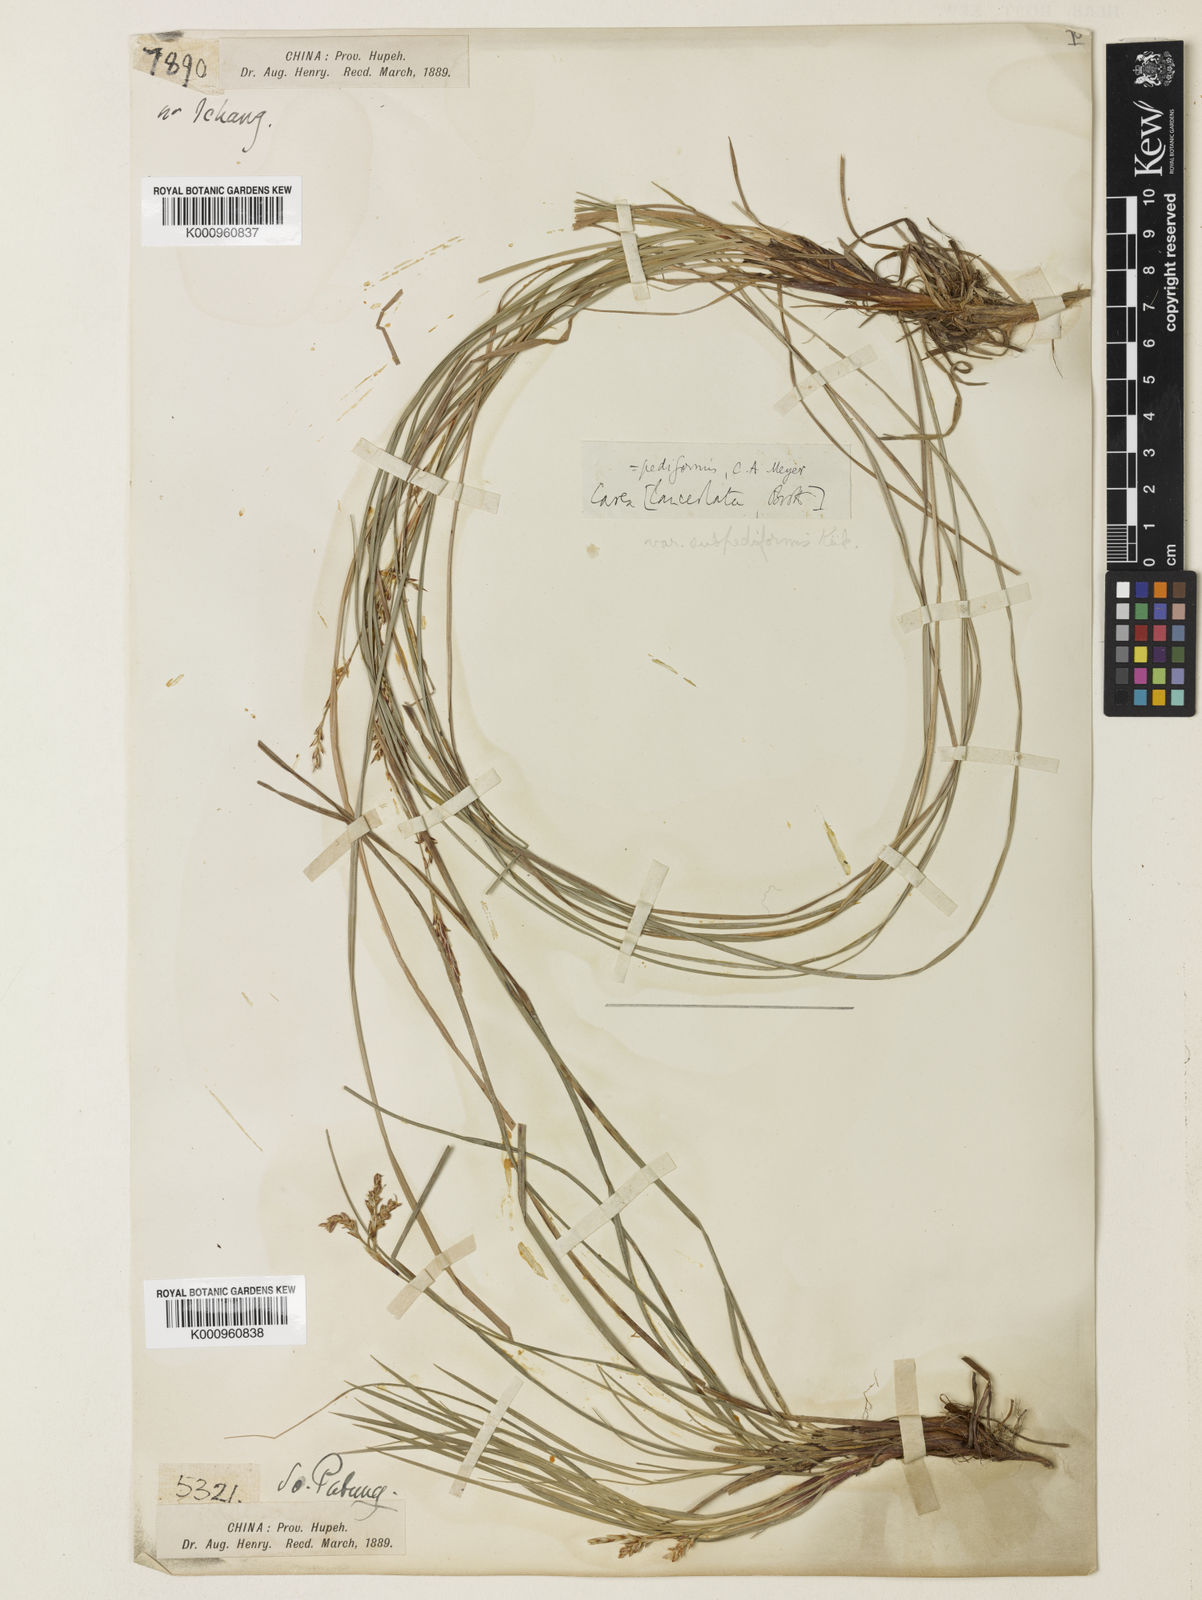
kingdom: Plantae
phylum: Tracheophyta
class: Liliopsida
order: Poales
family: Cyperaceae
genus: Carex
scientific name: Carex pediformis
